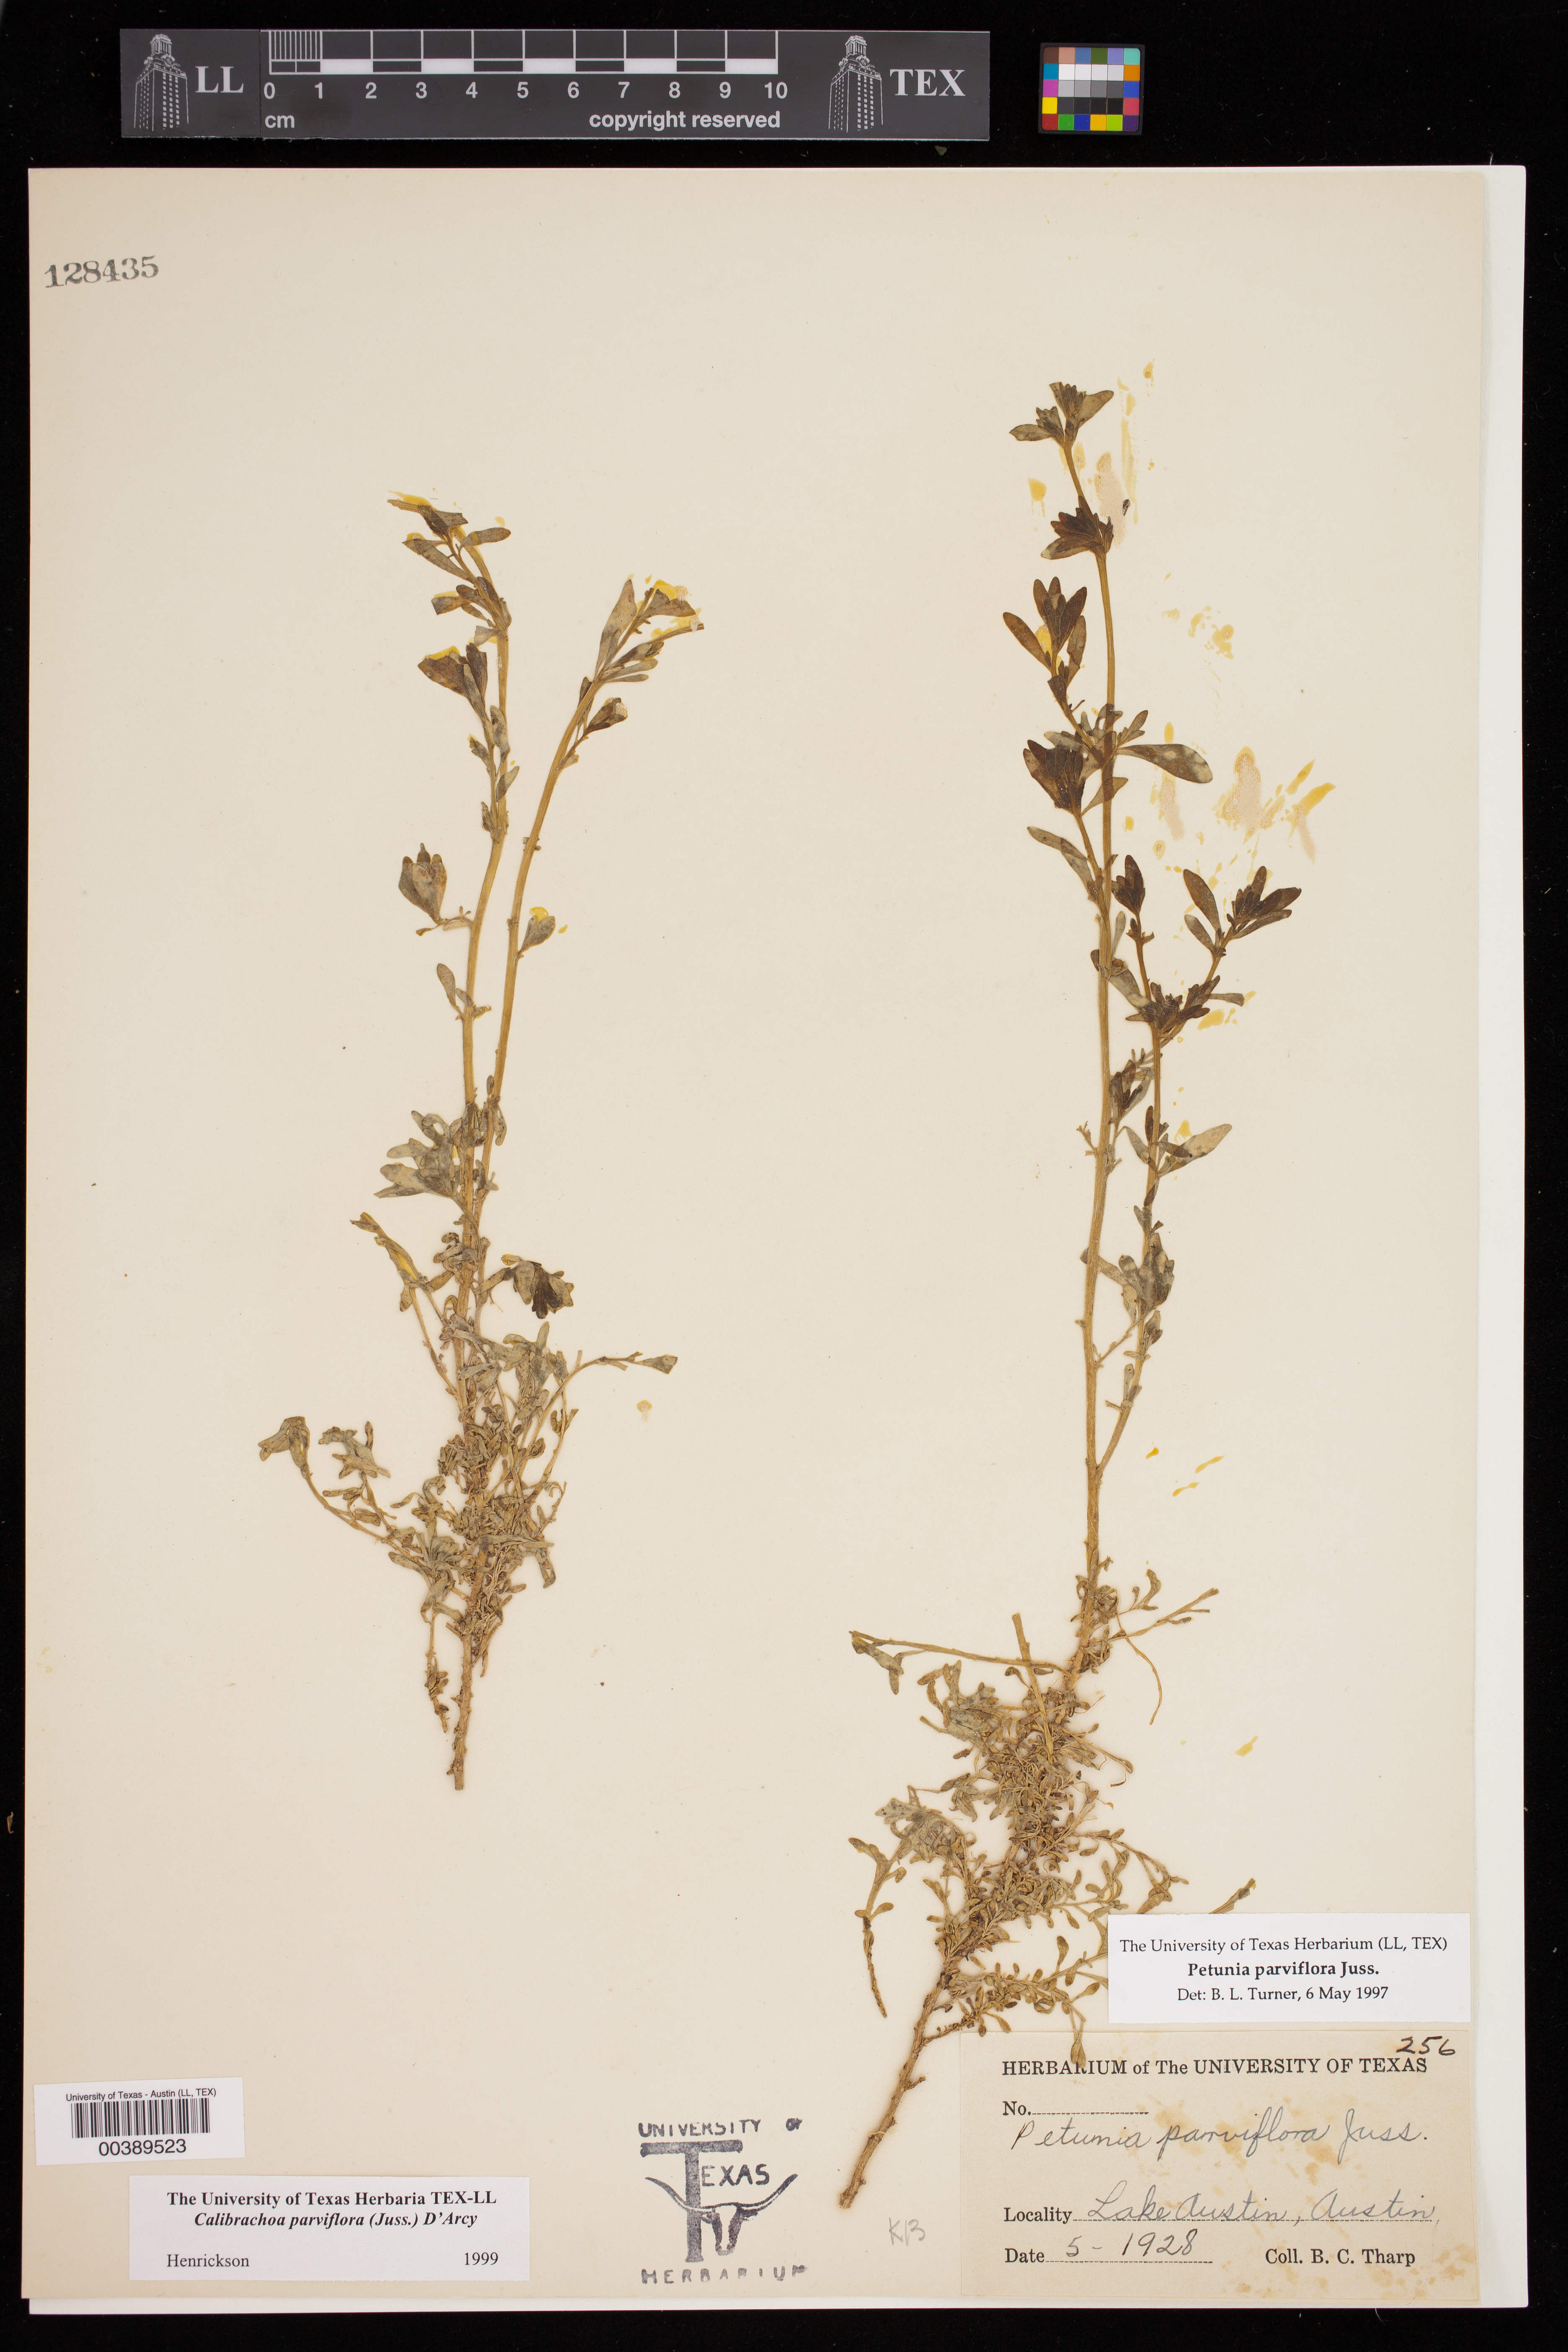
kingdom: Plantae
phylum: Tracheophyta
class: Magnoliopsida
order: Solanales
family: Solanaceae
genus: Calibrachoa
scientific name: Calibrachoa parviflora
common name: Seaside petunia
